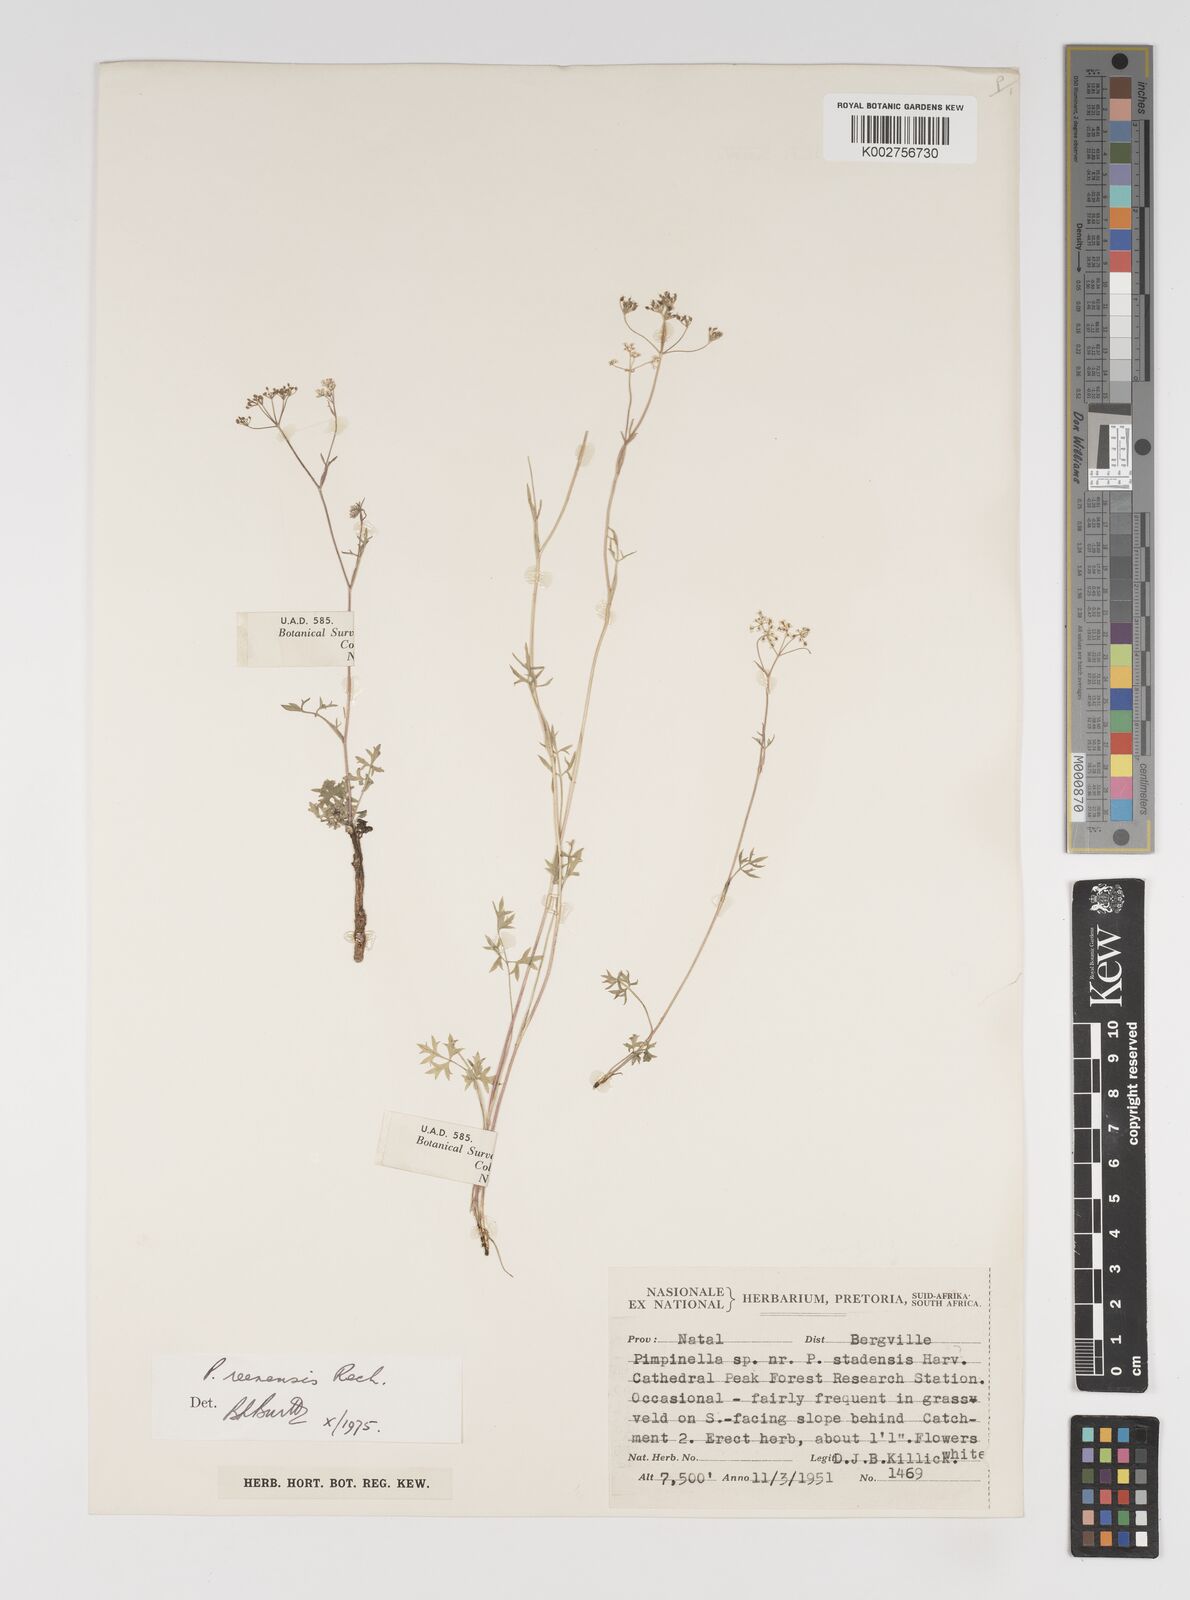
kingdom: Plantae
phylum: Tracheophyta
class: Magnoliopsida
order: Apiales
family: Apiaceae
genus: Pimpinella
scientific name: Pimpinella caffra
